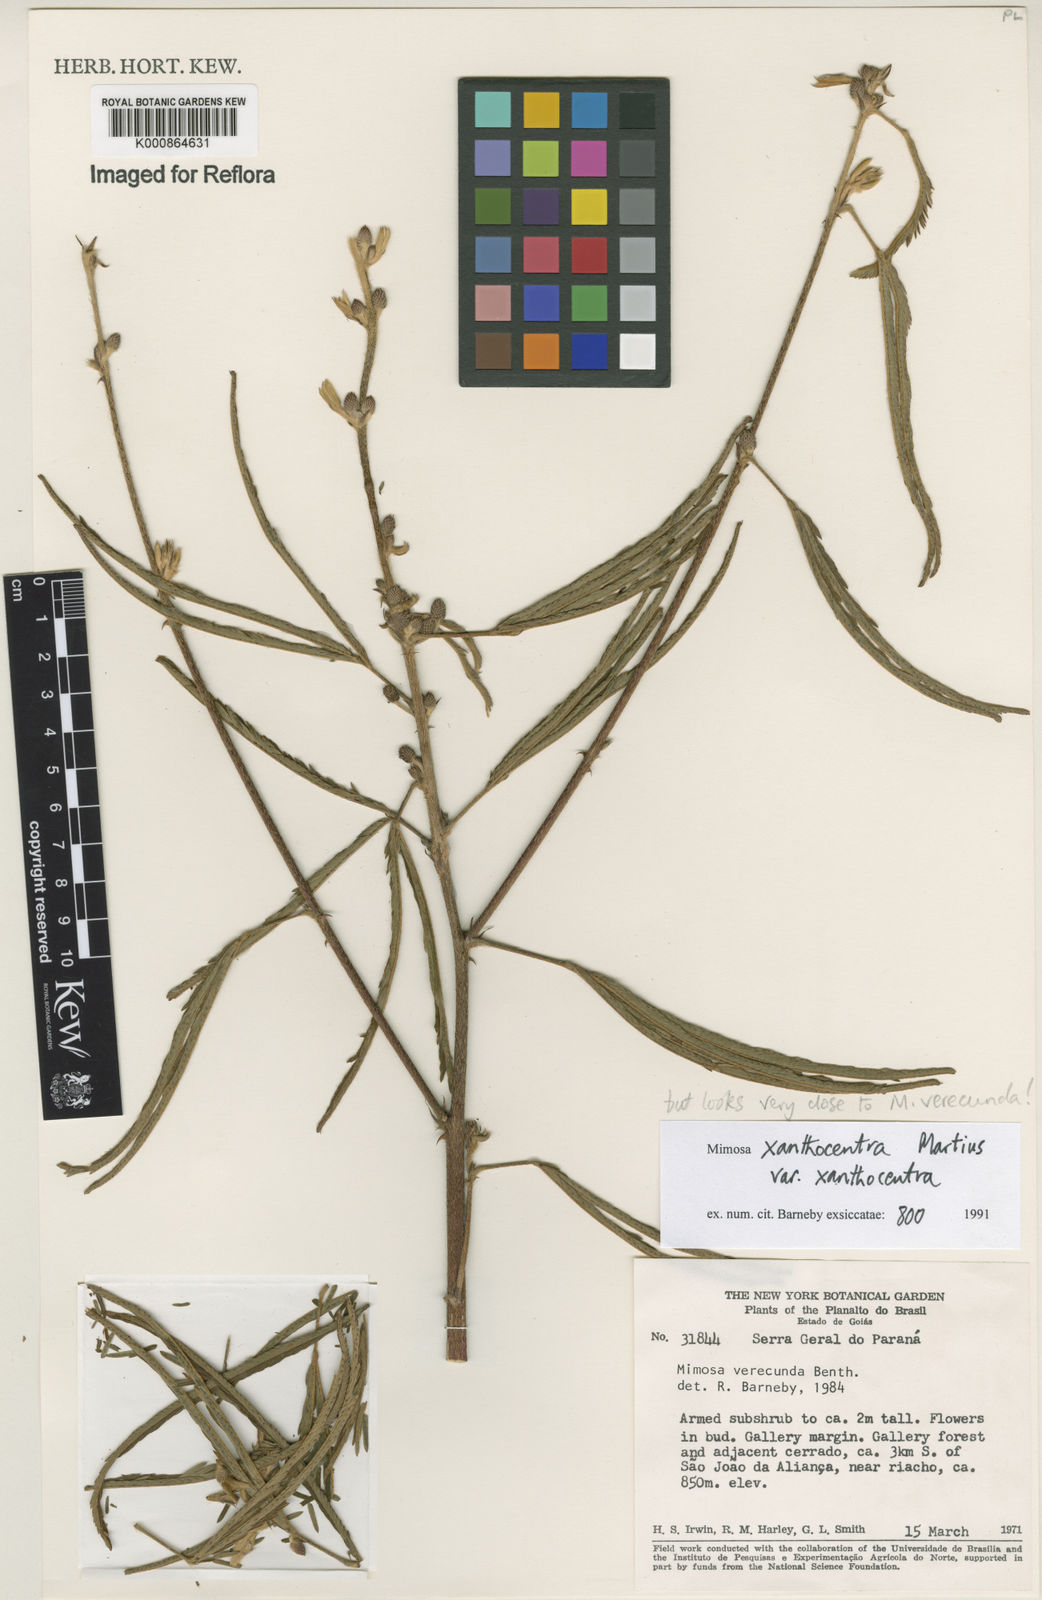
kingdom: Plantae
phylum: Tracheophyta
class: Magnoliopsida
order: Fabales
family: Fabaceae
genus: Mimosa
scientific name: Mimosa xanthocentra
